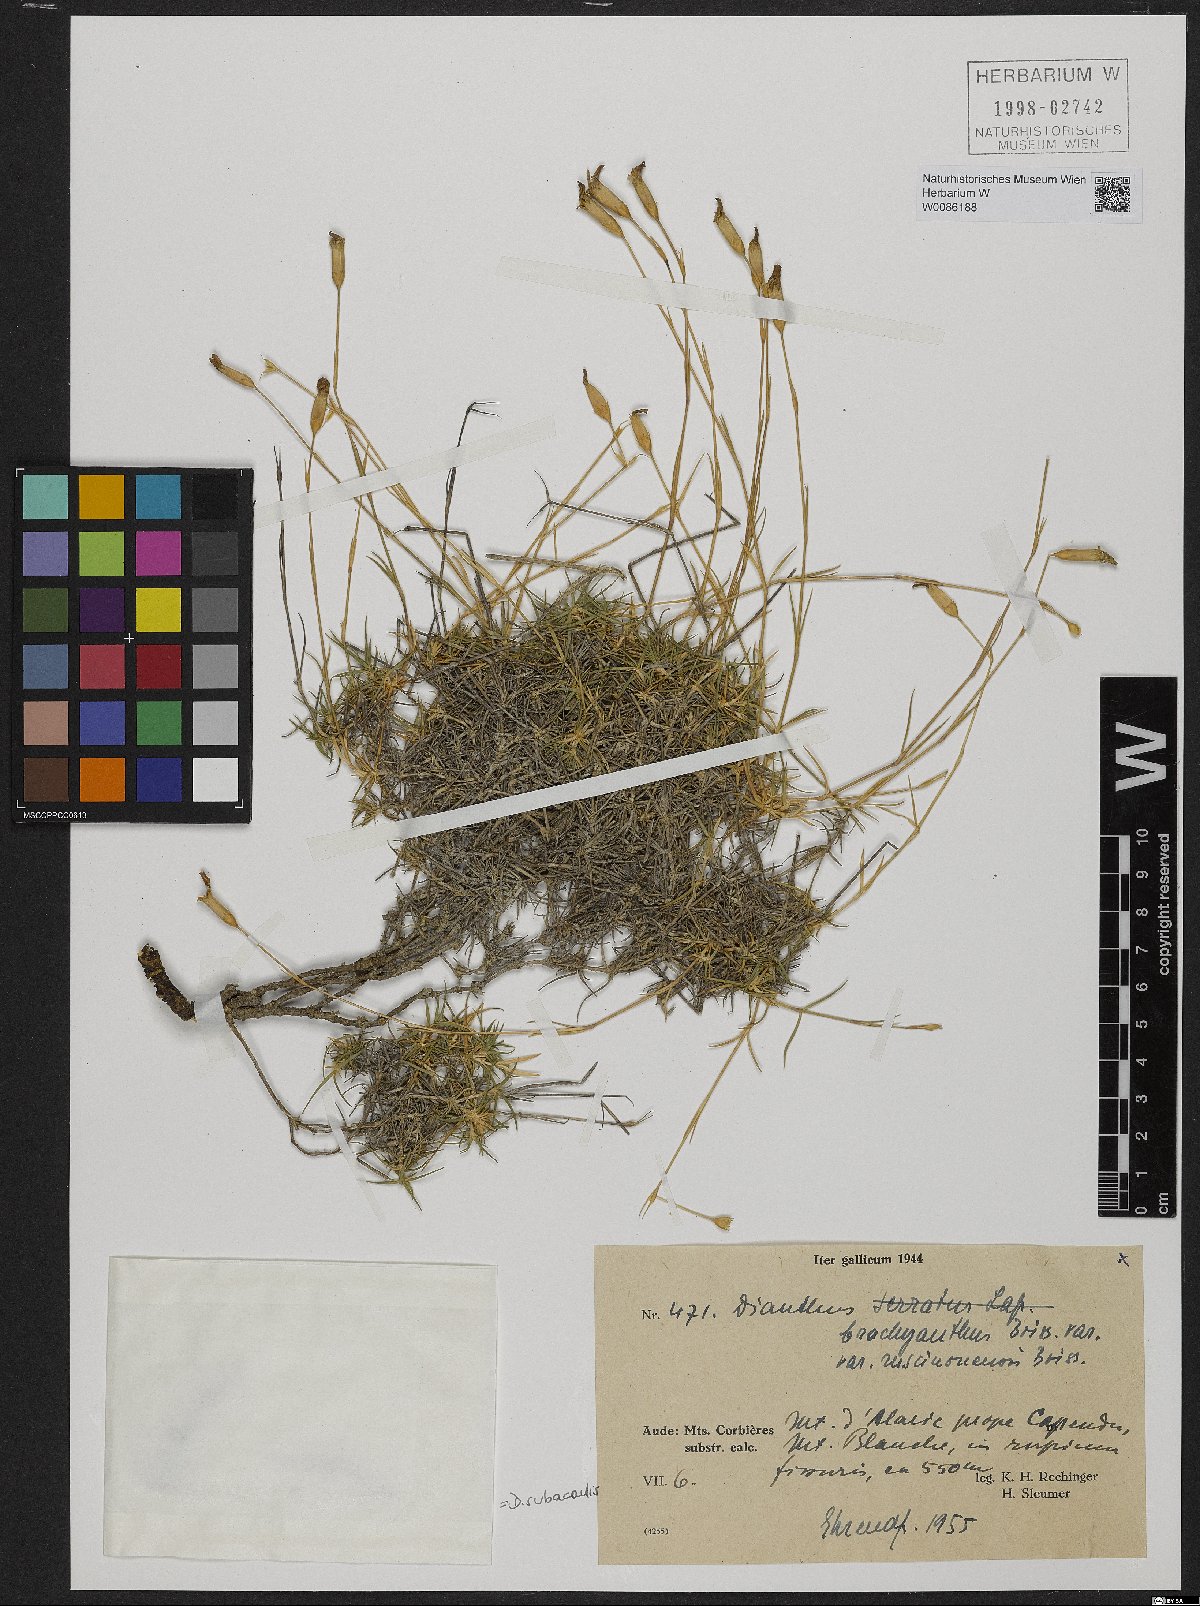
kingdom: Plantae
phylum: Tracheophyta
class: Magnoliopsida
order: Caryophyllales
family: Caryophyllaceae
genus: Dianthus
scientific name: Dianthus pungens
